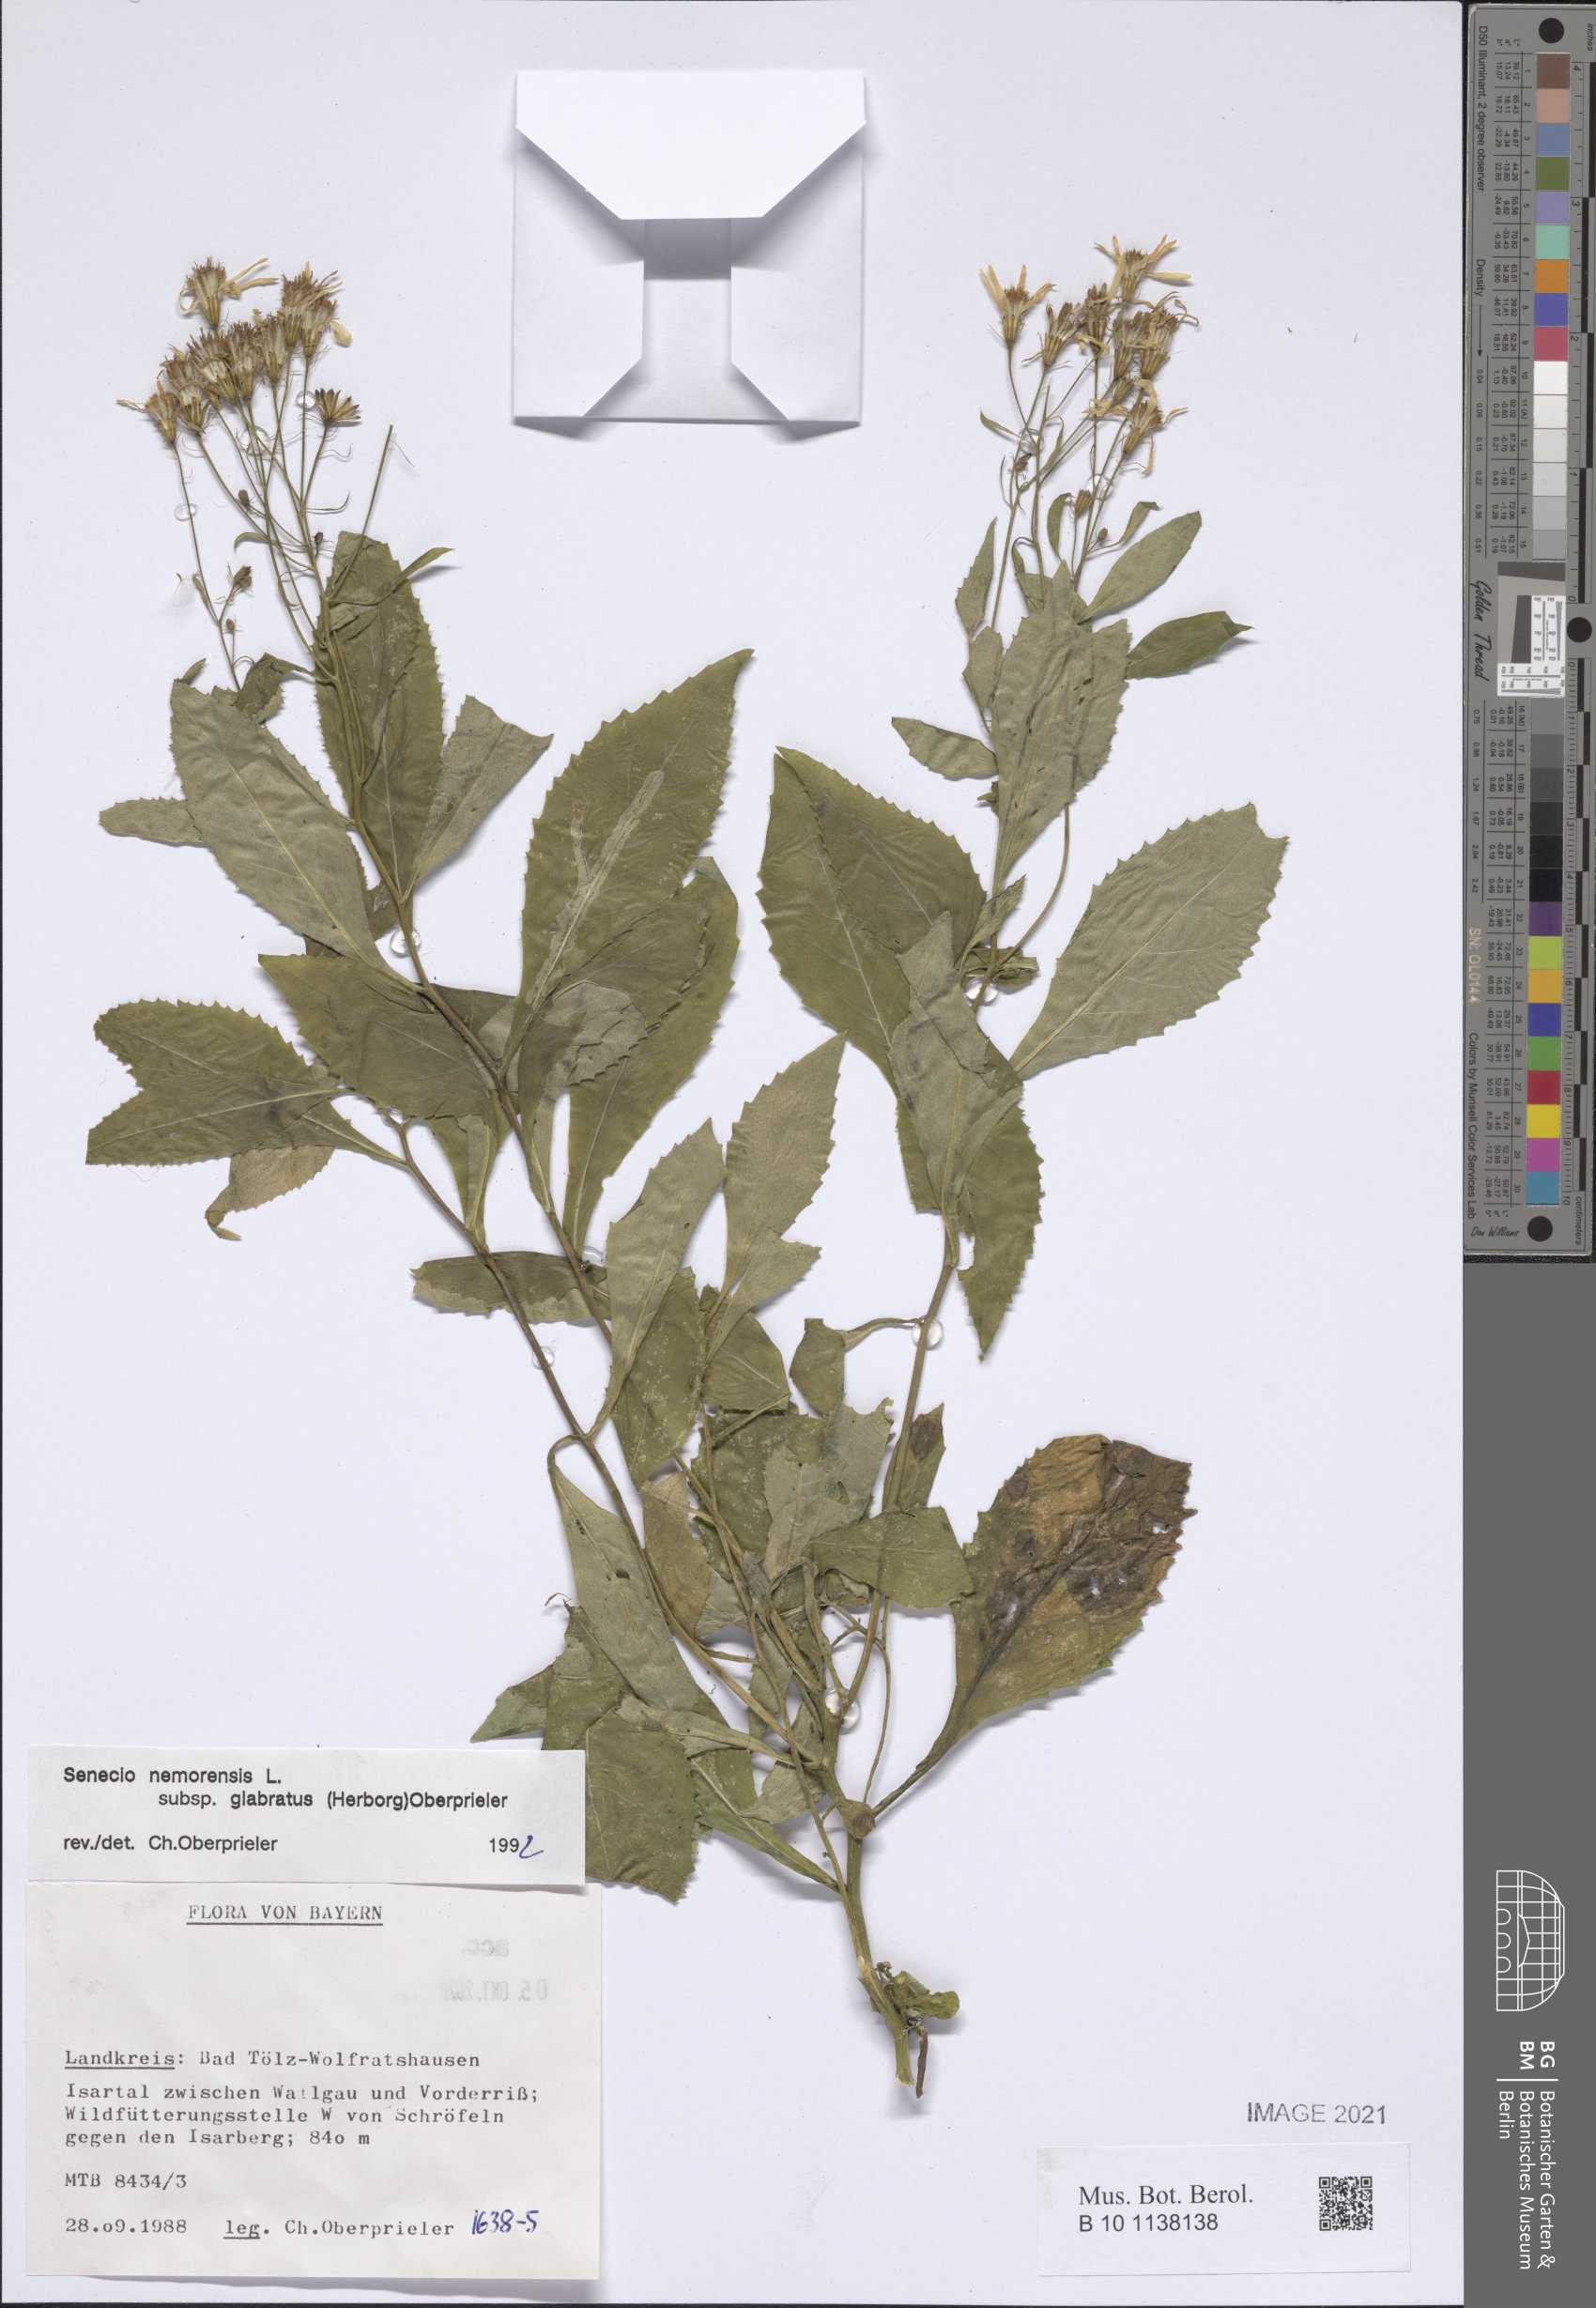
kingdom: Plantae
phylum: Tracheophyta
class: Magnoliopsida
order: Asterales
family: Asteraceae
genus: Senecio
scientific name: Senecio germanicus
